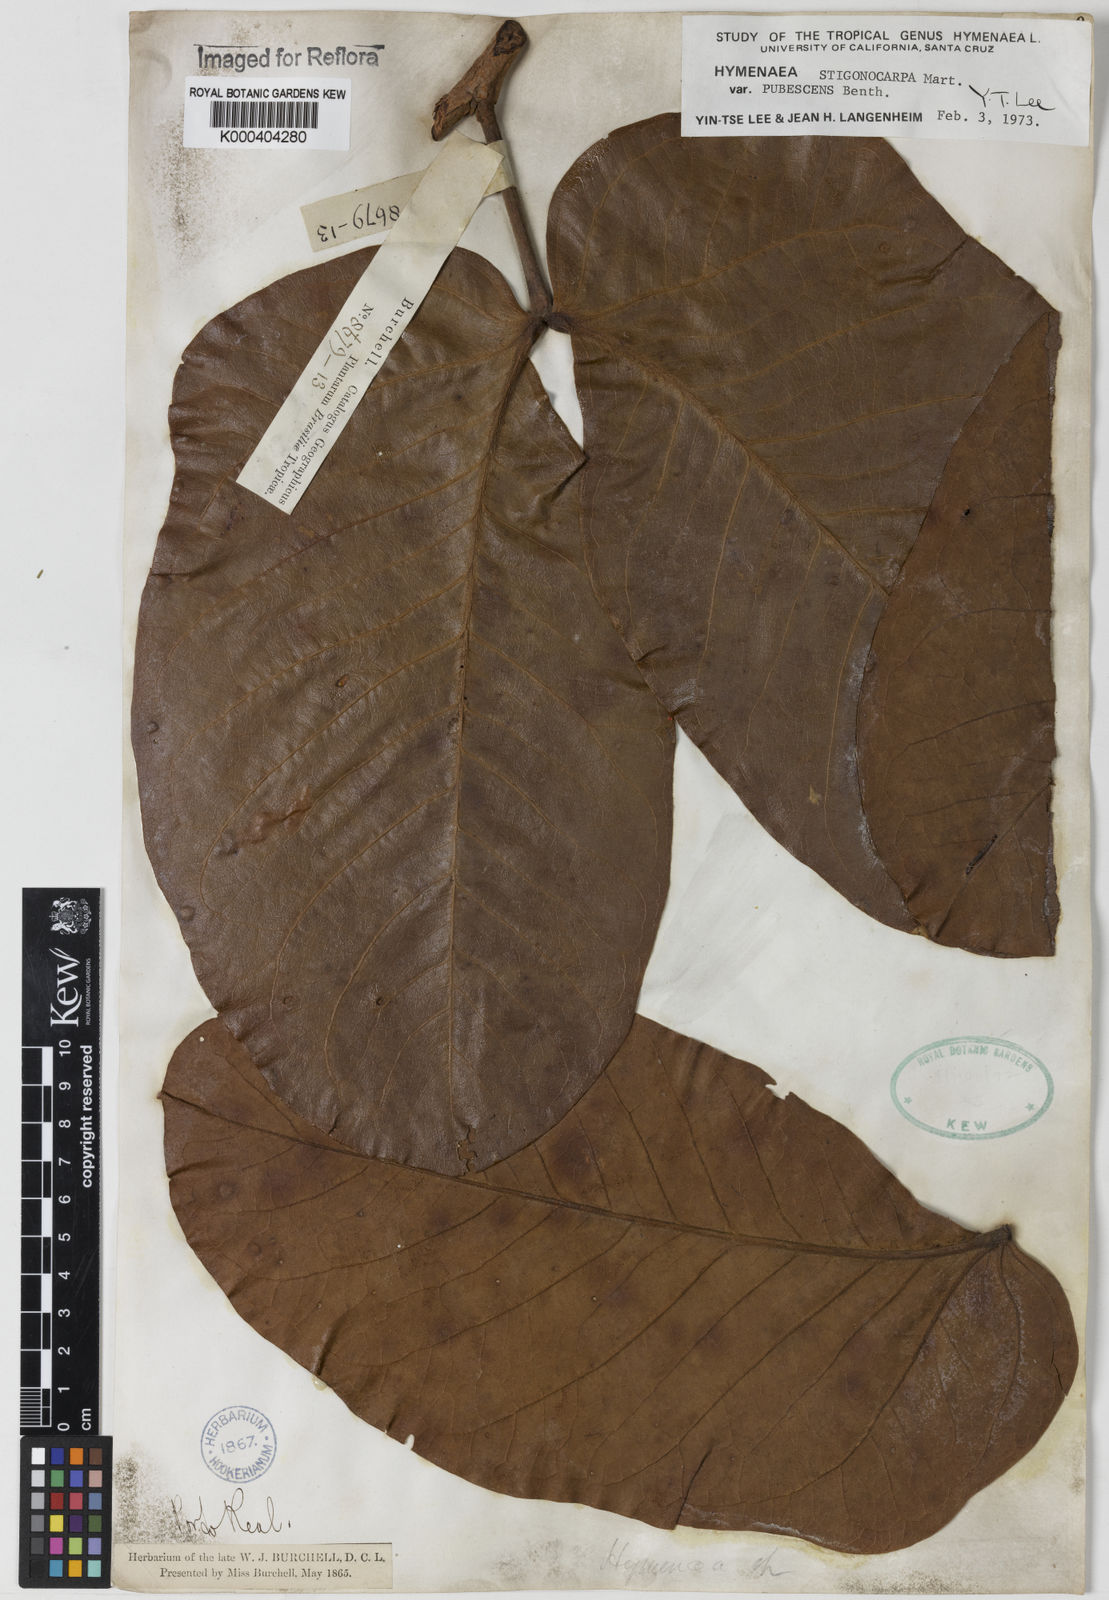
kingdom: Plantae
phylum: Tracheophyta
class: Magnoliopsida
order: Fabales
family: Fabaceae
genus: Hymenaea
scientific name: Hymenaea stigonocarpa
